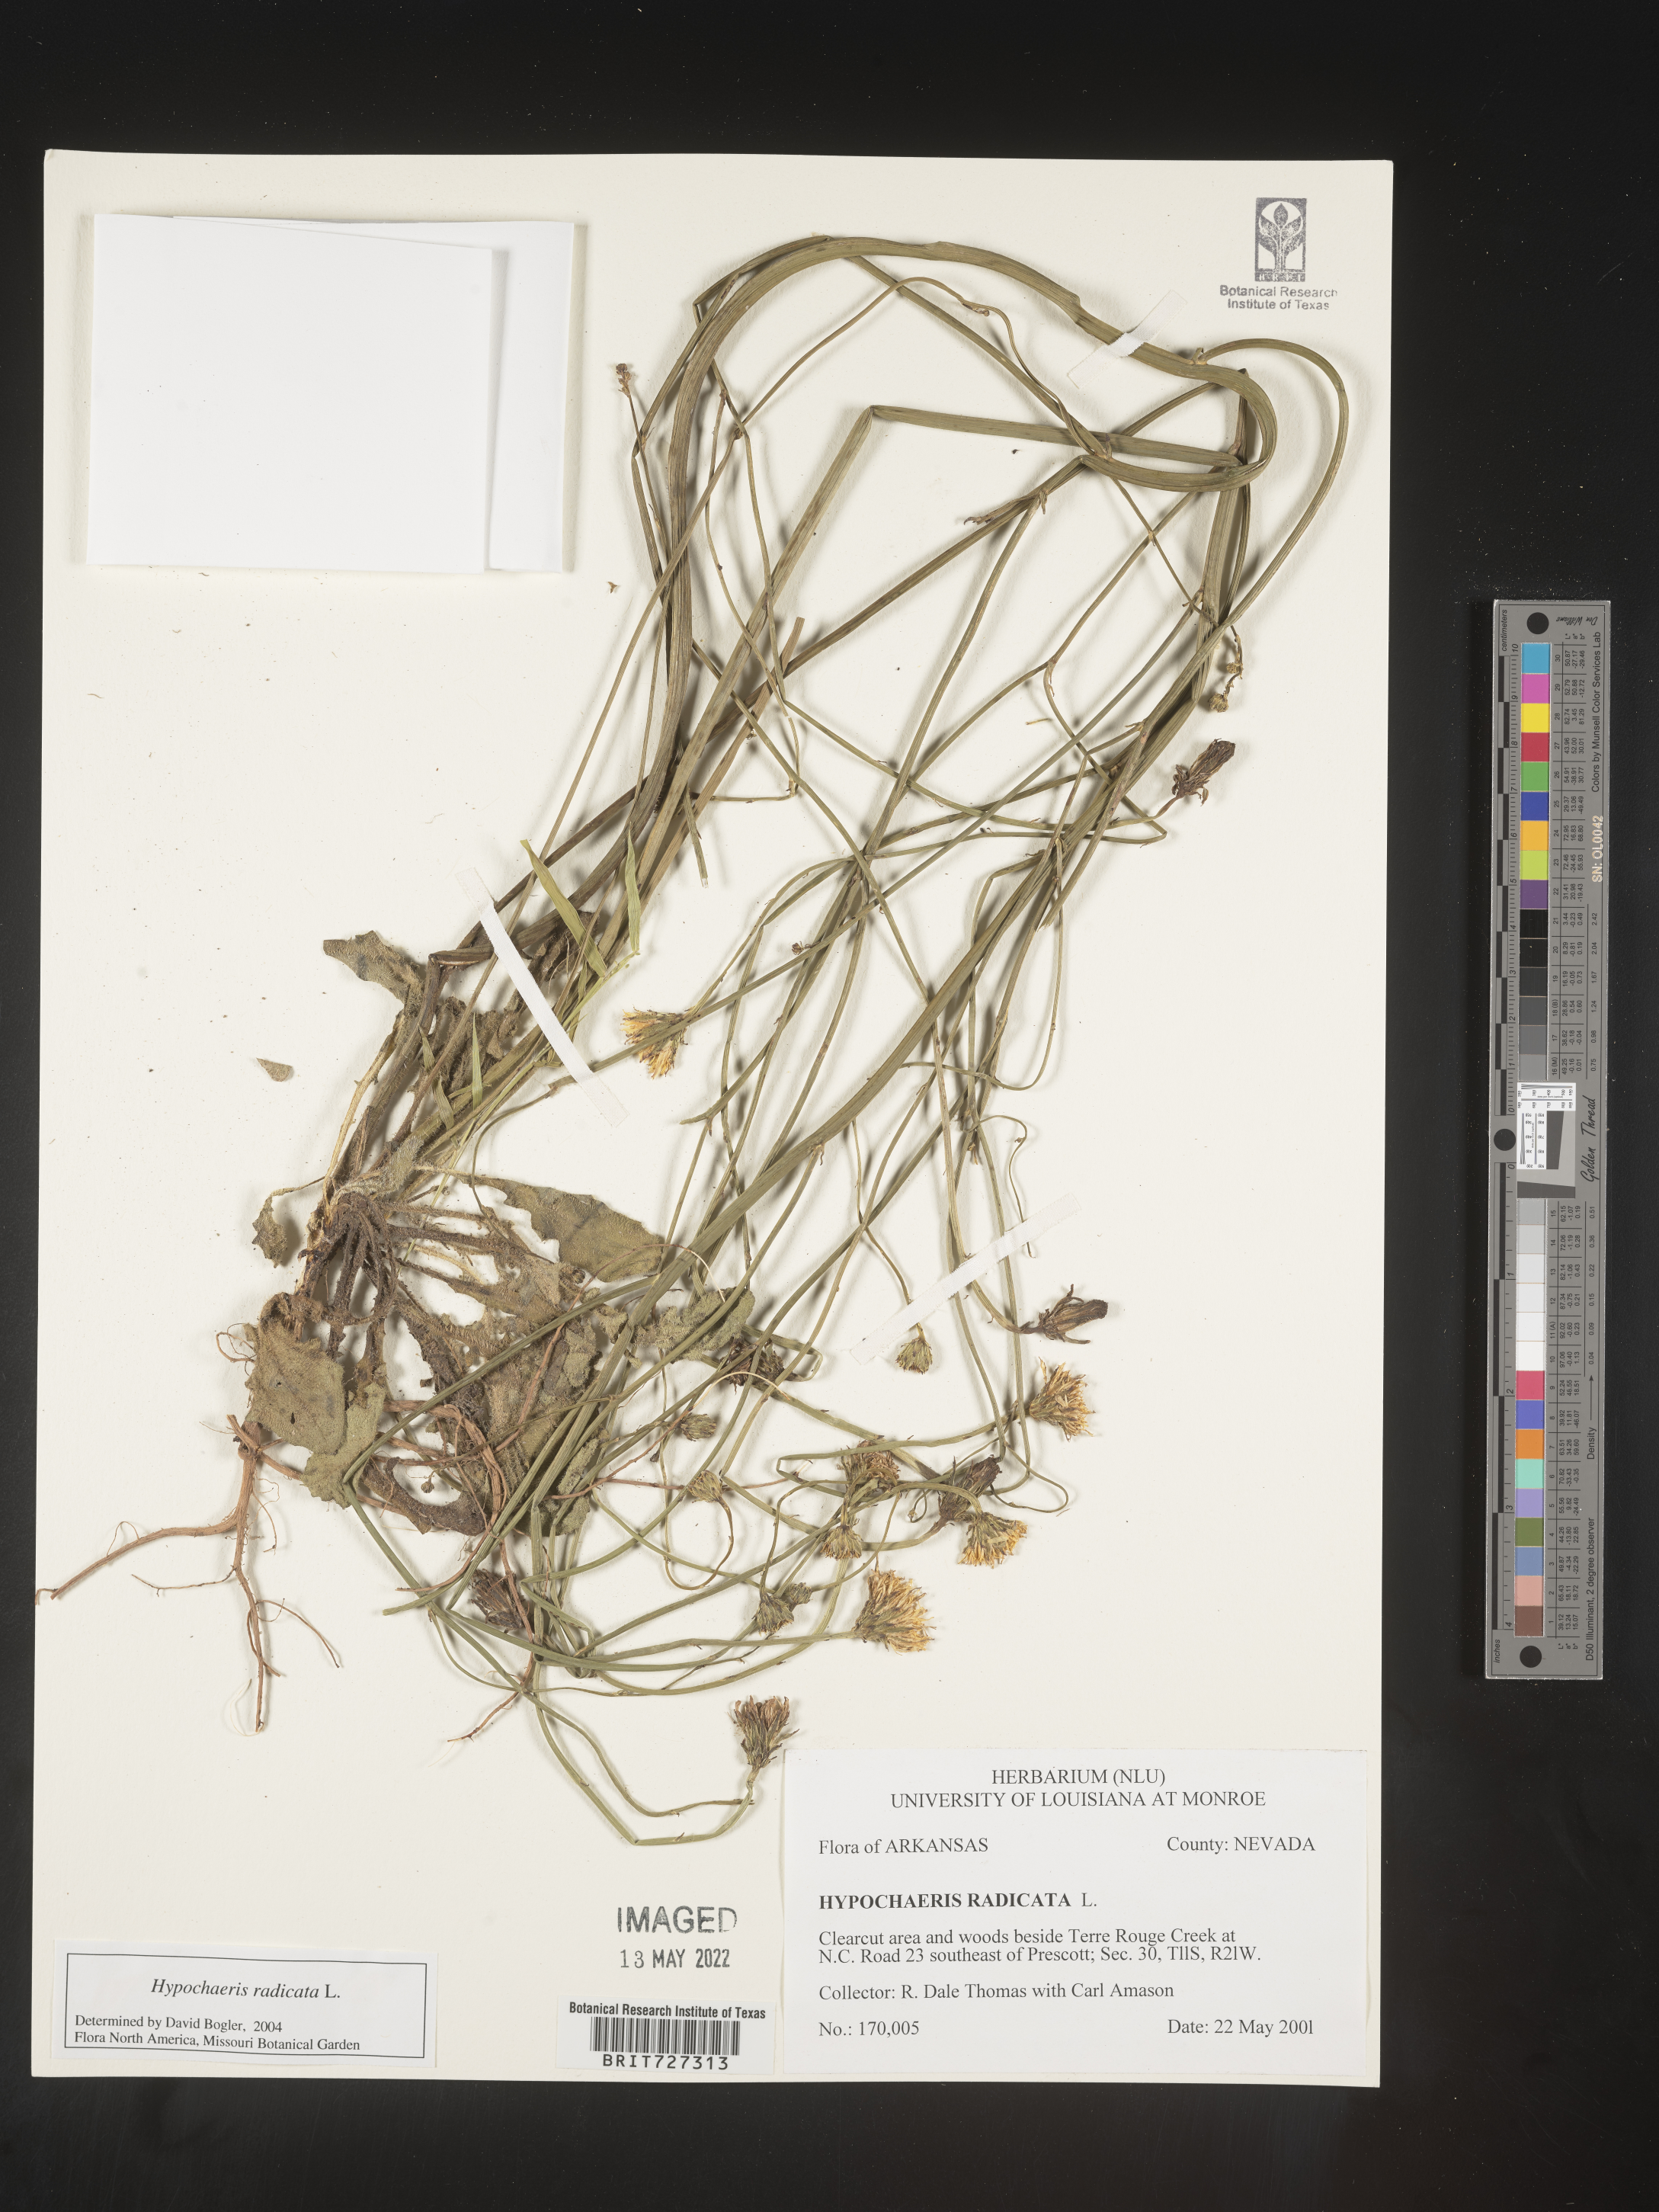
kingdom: Plantae
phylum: Tracheophyta
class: Magnoliopsida
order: Asterales
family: Asteraceae
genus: Hypochaeris
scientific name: Hypochaeris radicata
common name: Flatweed
